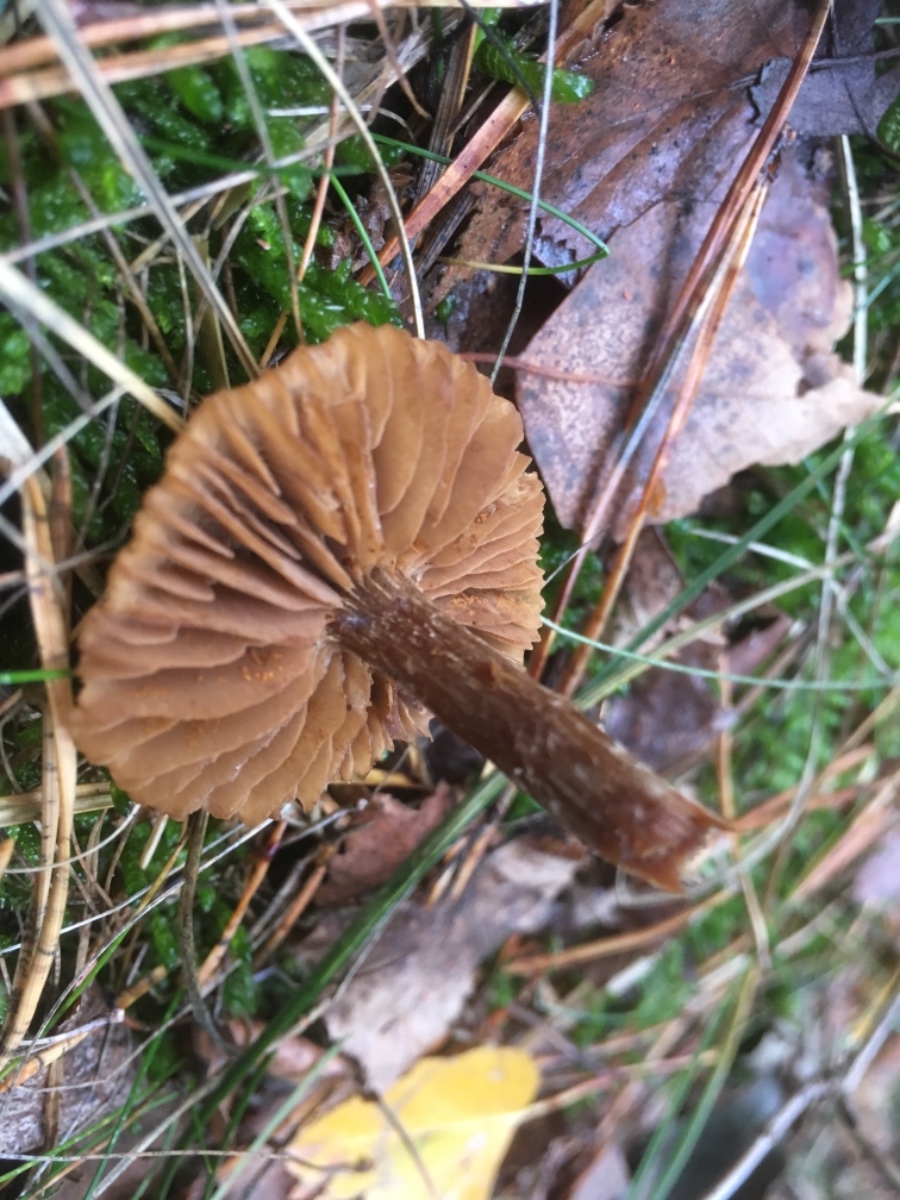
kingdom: Fungi
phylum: Basidiomycota
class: Agaricomycetes
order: Agaricales
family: Cortinariaceae
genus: Cortinarius
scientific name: Cortinarius
